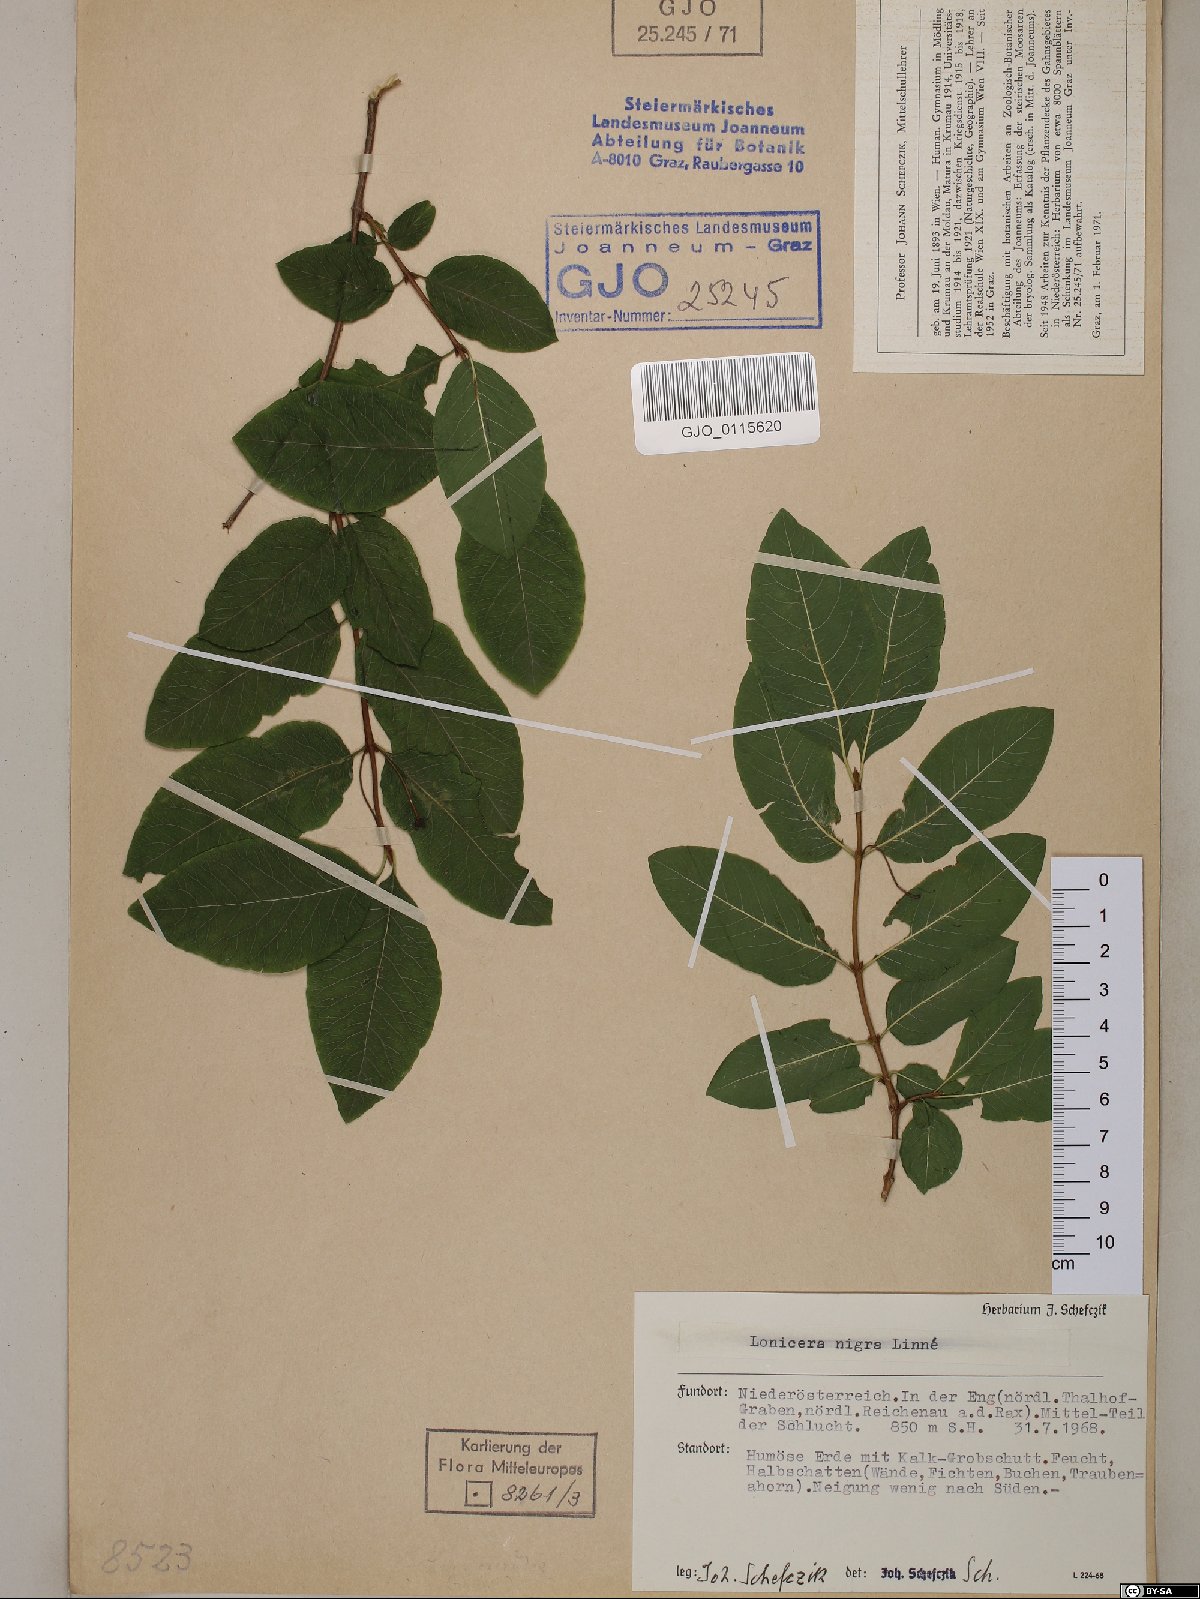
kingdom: Plantae
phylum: Tracheophyta
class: Magnoliopsida
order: Dipsacales
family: Caprifoliaceae
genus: Lonicera
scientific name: Lonicera nigra
